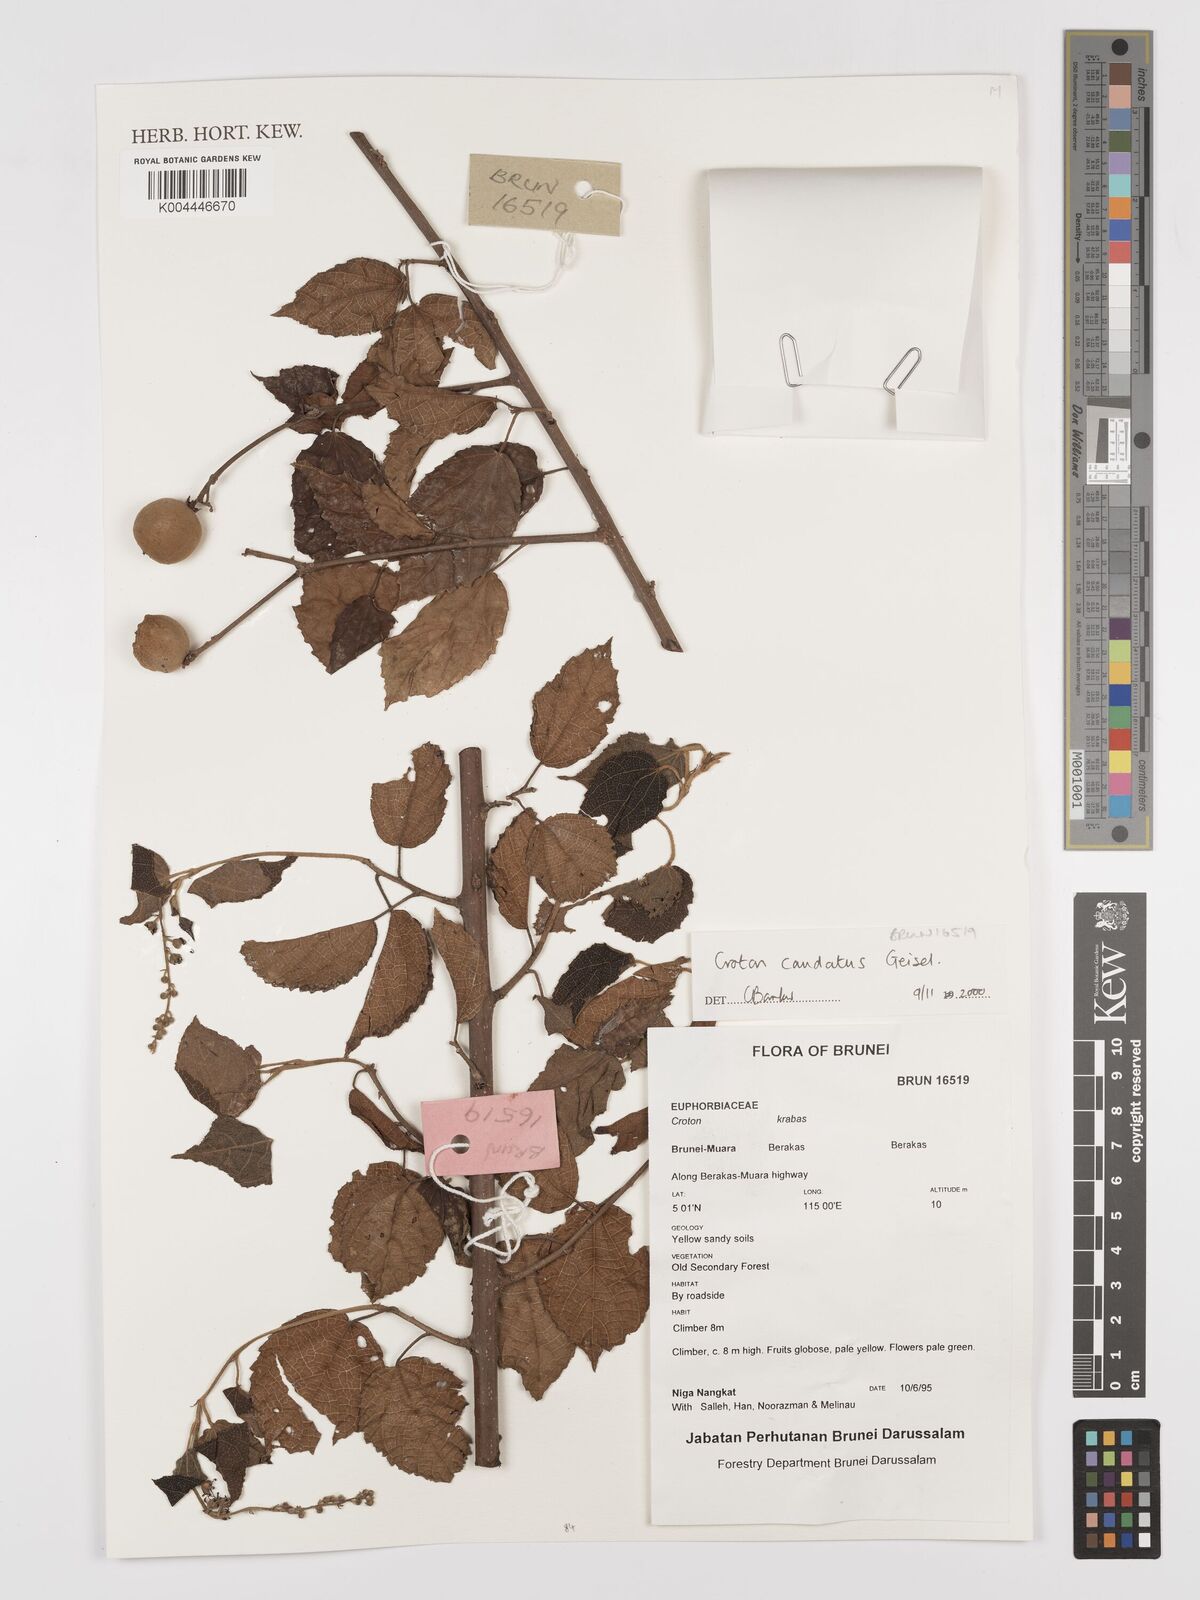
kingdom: Plantae
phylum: Tracheophyta
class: Magnoliopsida
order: Malpighiales
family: Euphorbiaceae
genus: Croton
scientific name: Croton caudatus
